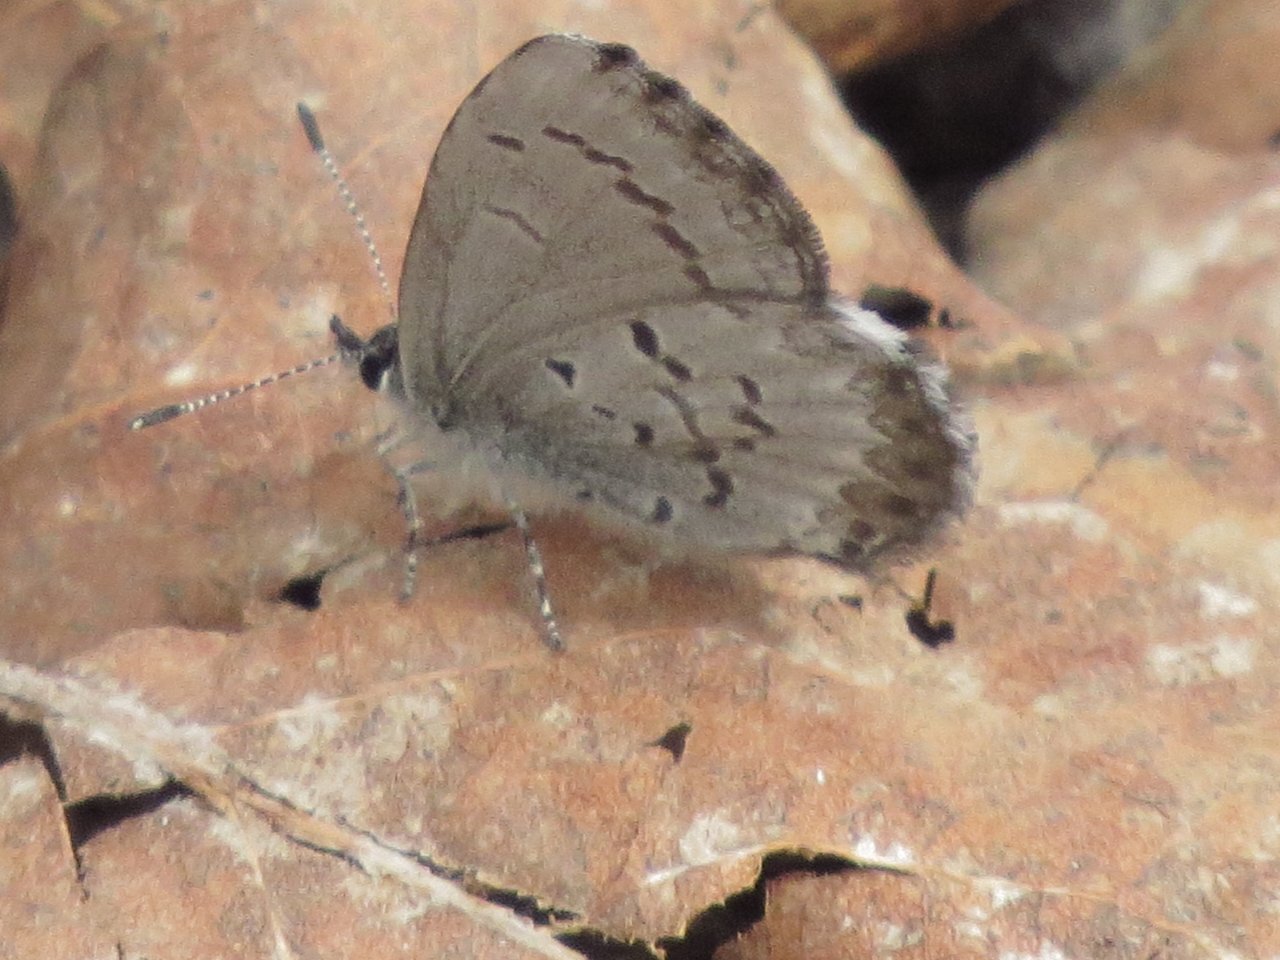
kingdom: Animalia
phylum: Arthropoda
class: Insecta
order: Lepidoptera
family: Lycaenidae
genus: Celastrina
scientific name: Celastrina lucia
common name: Northern Spring Azure
